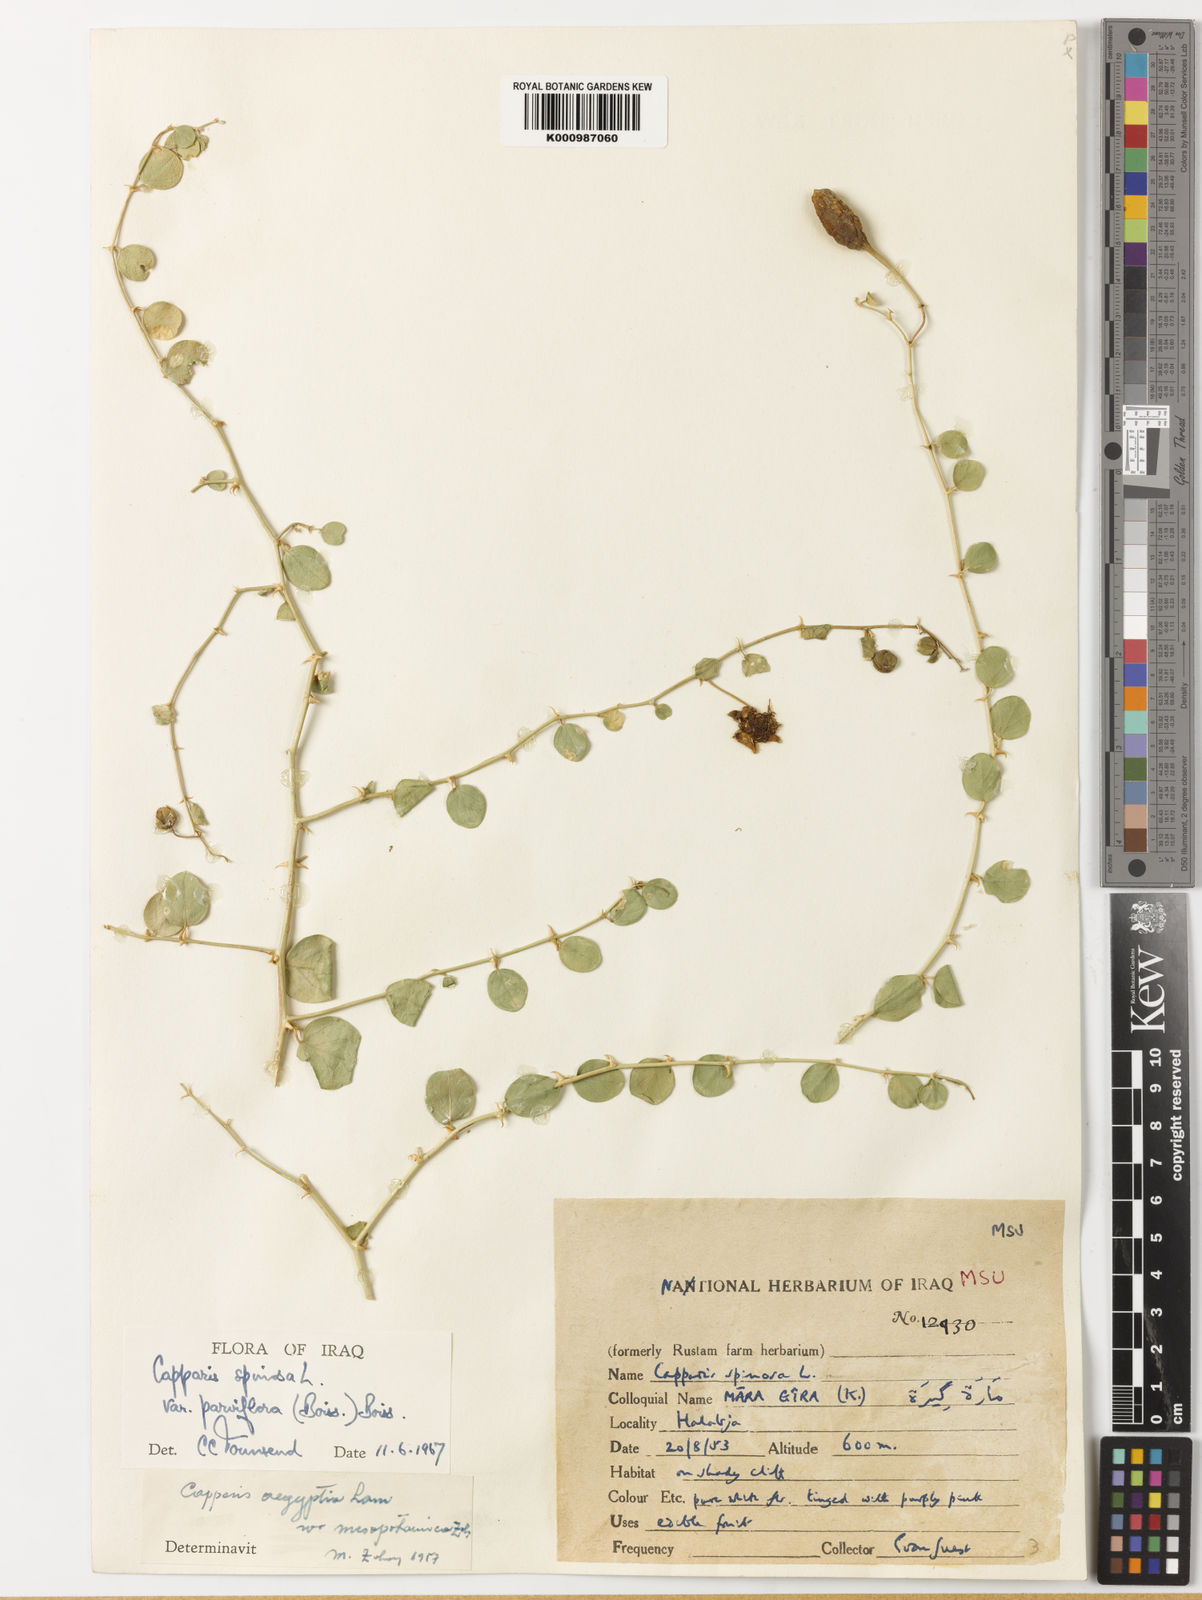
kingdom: Plantae
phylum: Tracheophyta
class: Magnoliopsida
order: Brassicales
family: Capparaceae
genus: Capparis
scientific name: Capparis spinosa
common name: Caper
